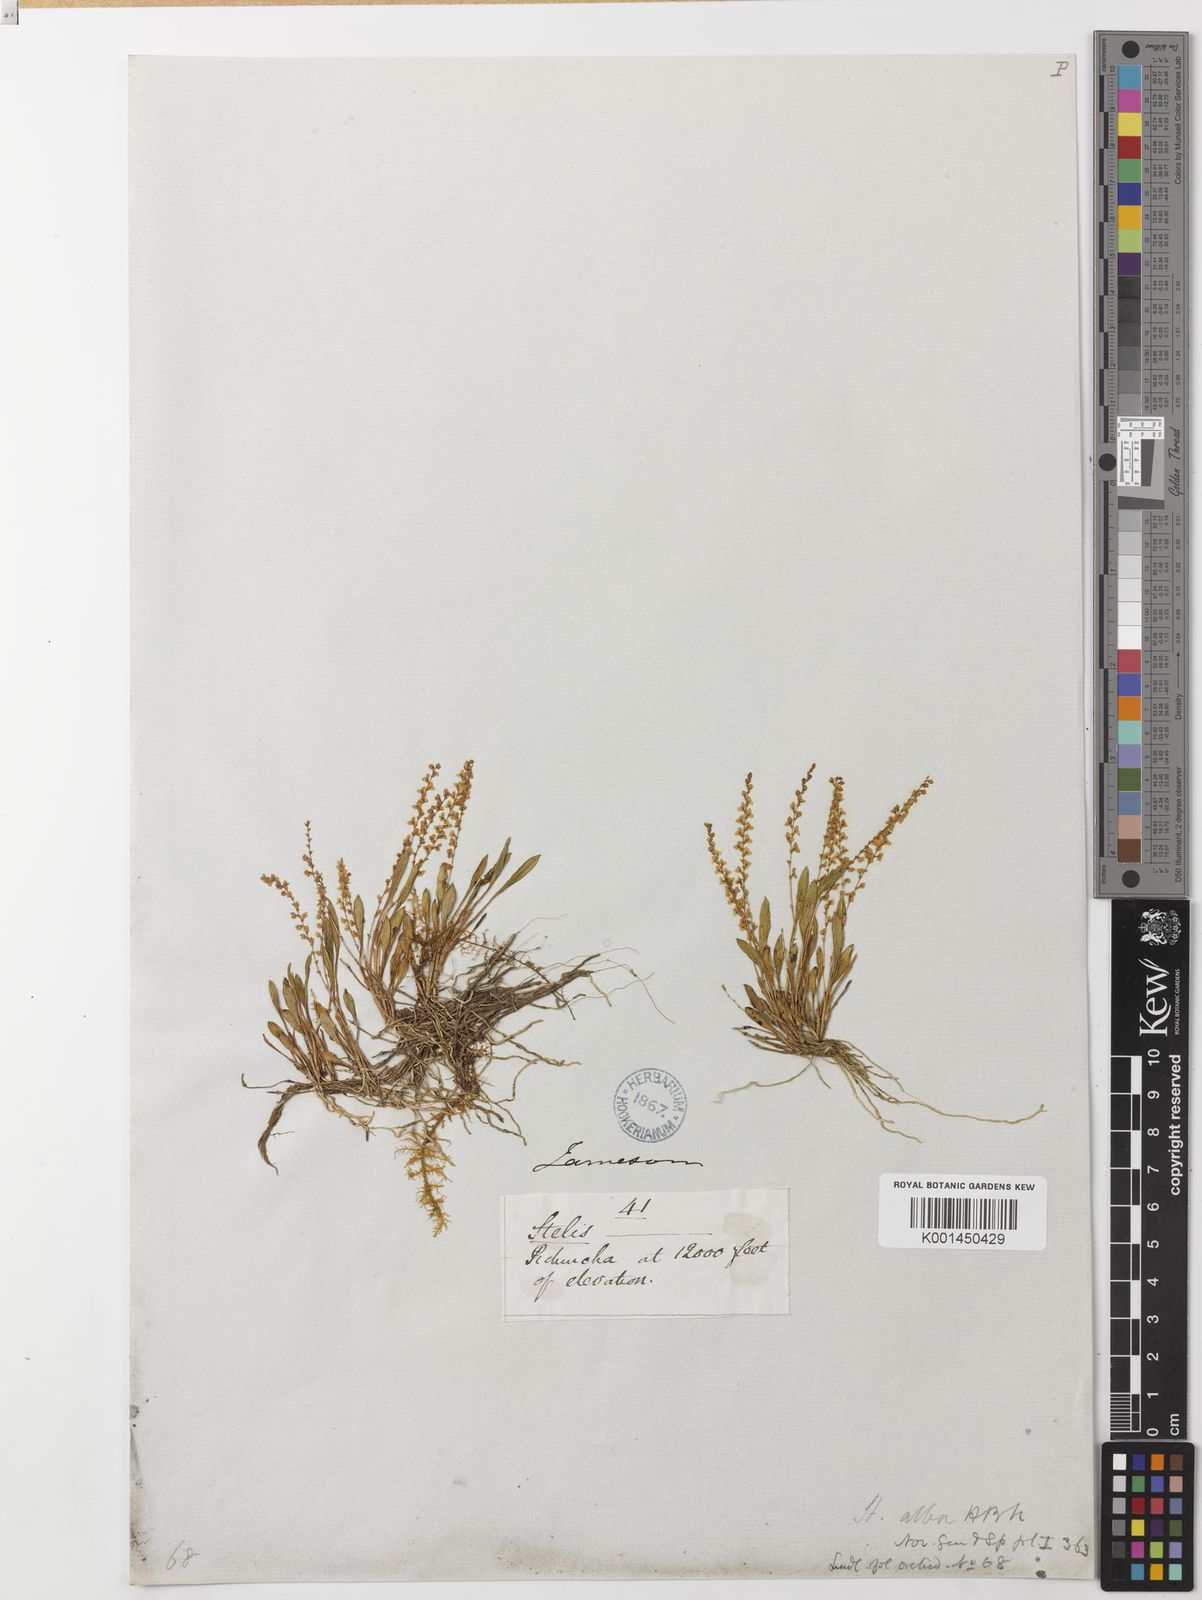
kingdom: Plantae
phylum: Tracheophyta
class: Liliopsida
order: Asparagales
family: Orchidaceae
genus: Stelis
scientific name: Stelis alba
